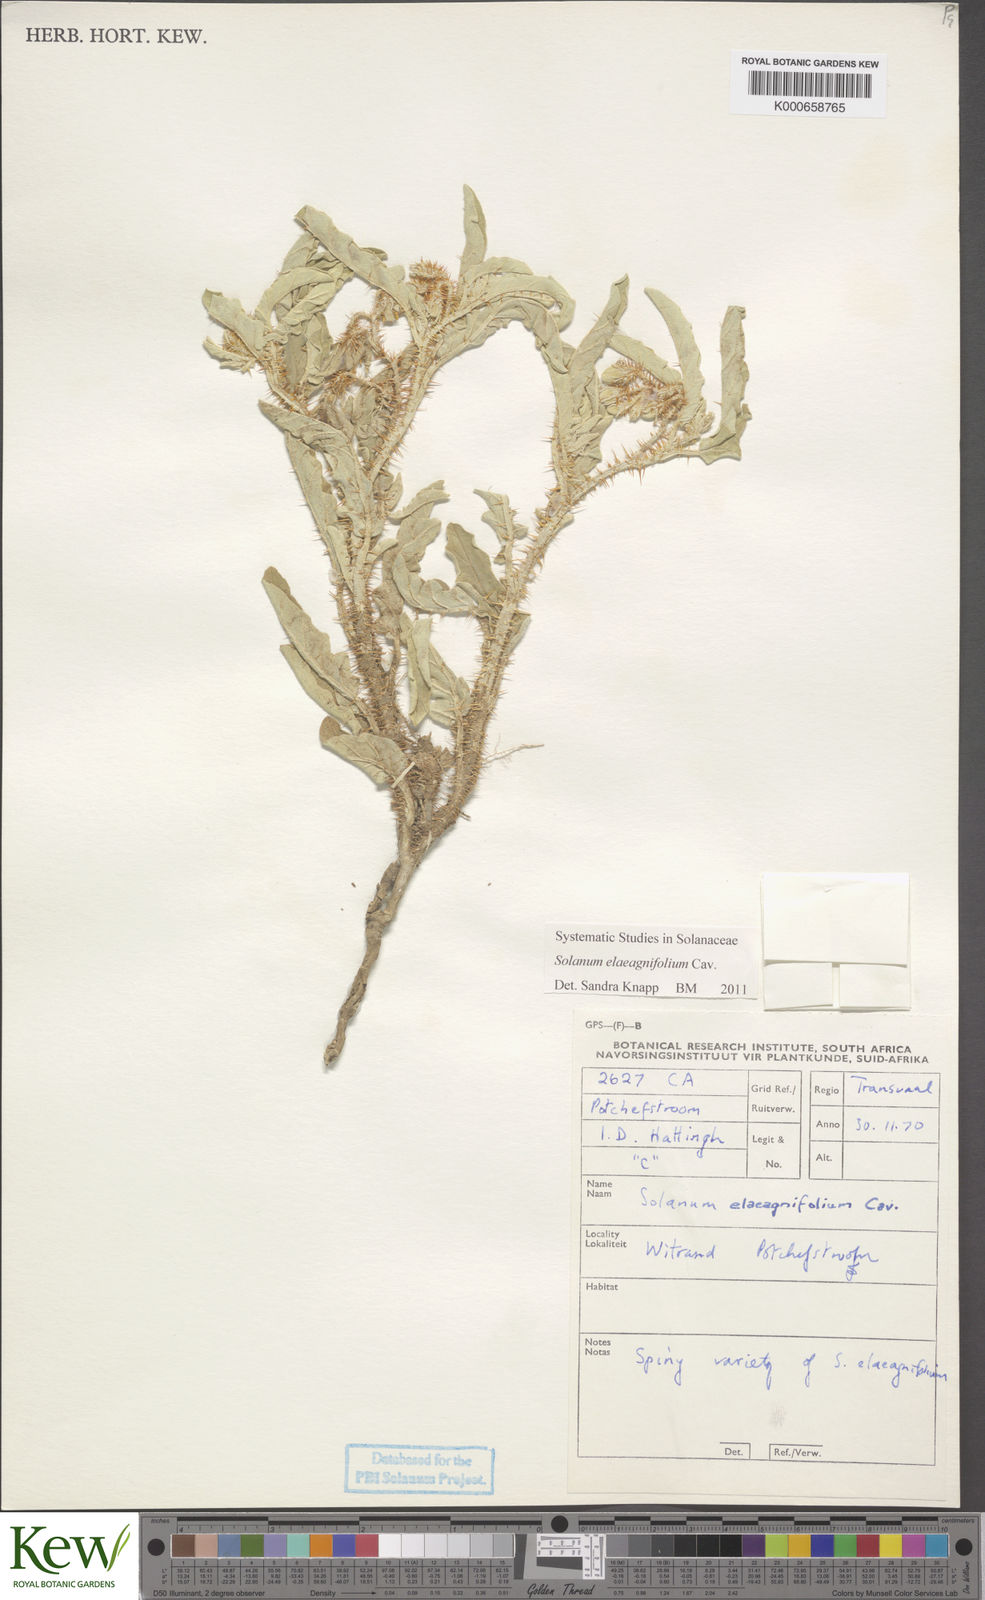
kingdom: Plantae
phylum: Tracheophyta
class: Magnoliopsida
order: Solanales
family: Solanaceae
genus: Solanum
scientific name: Solanum elaeagnifolium
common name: Silverleaf nightshade
